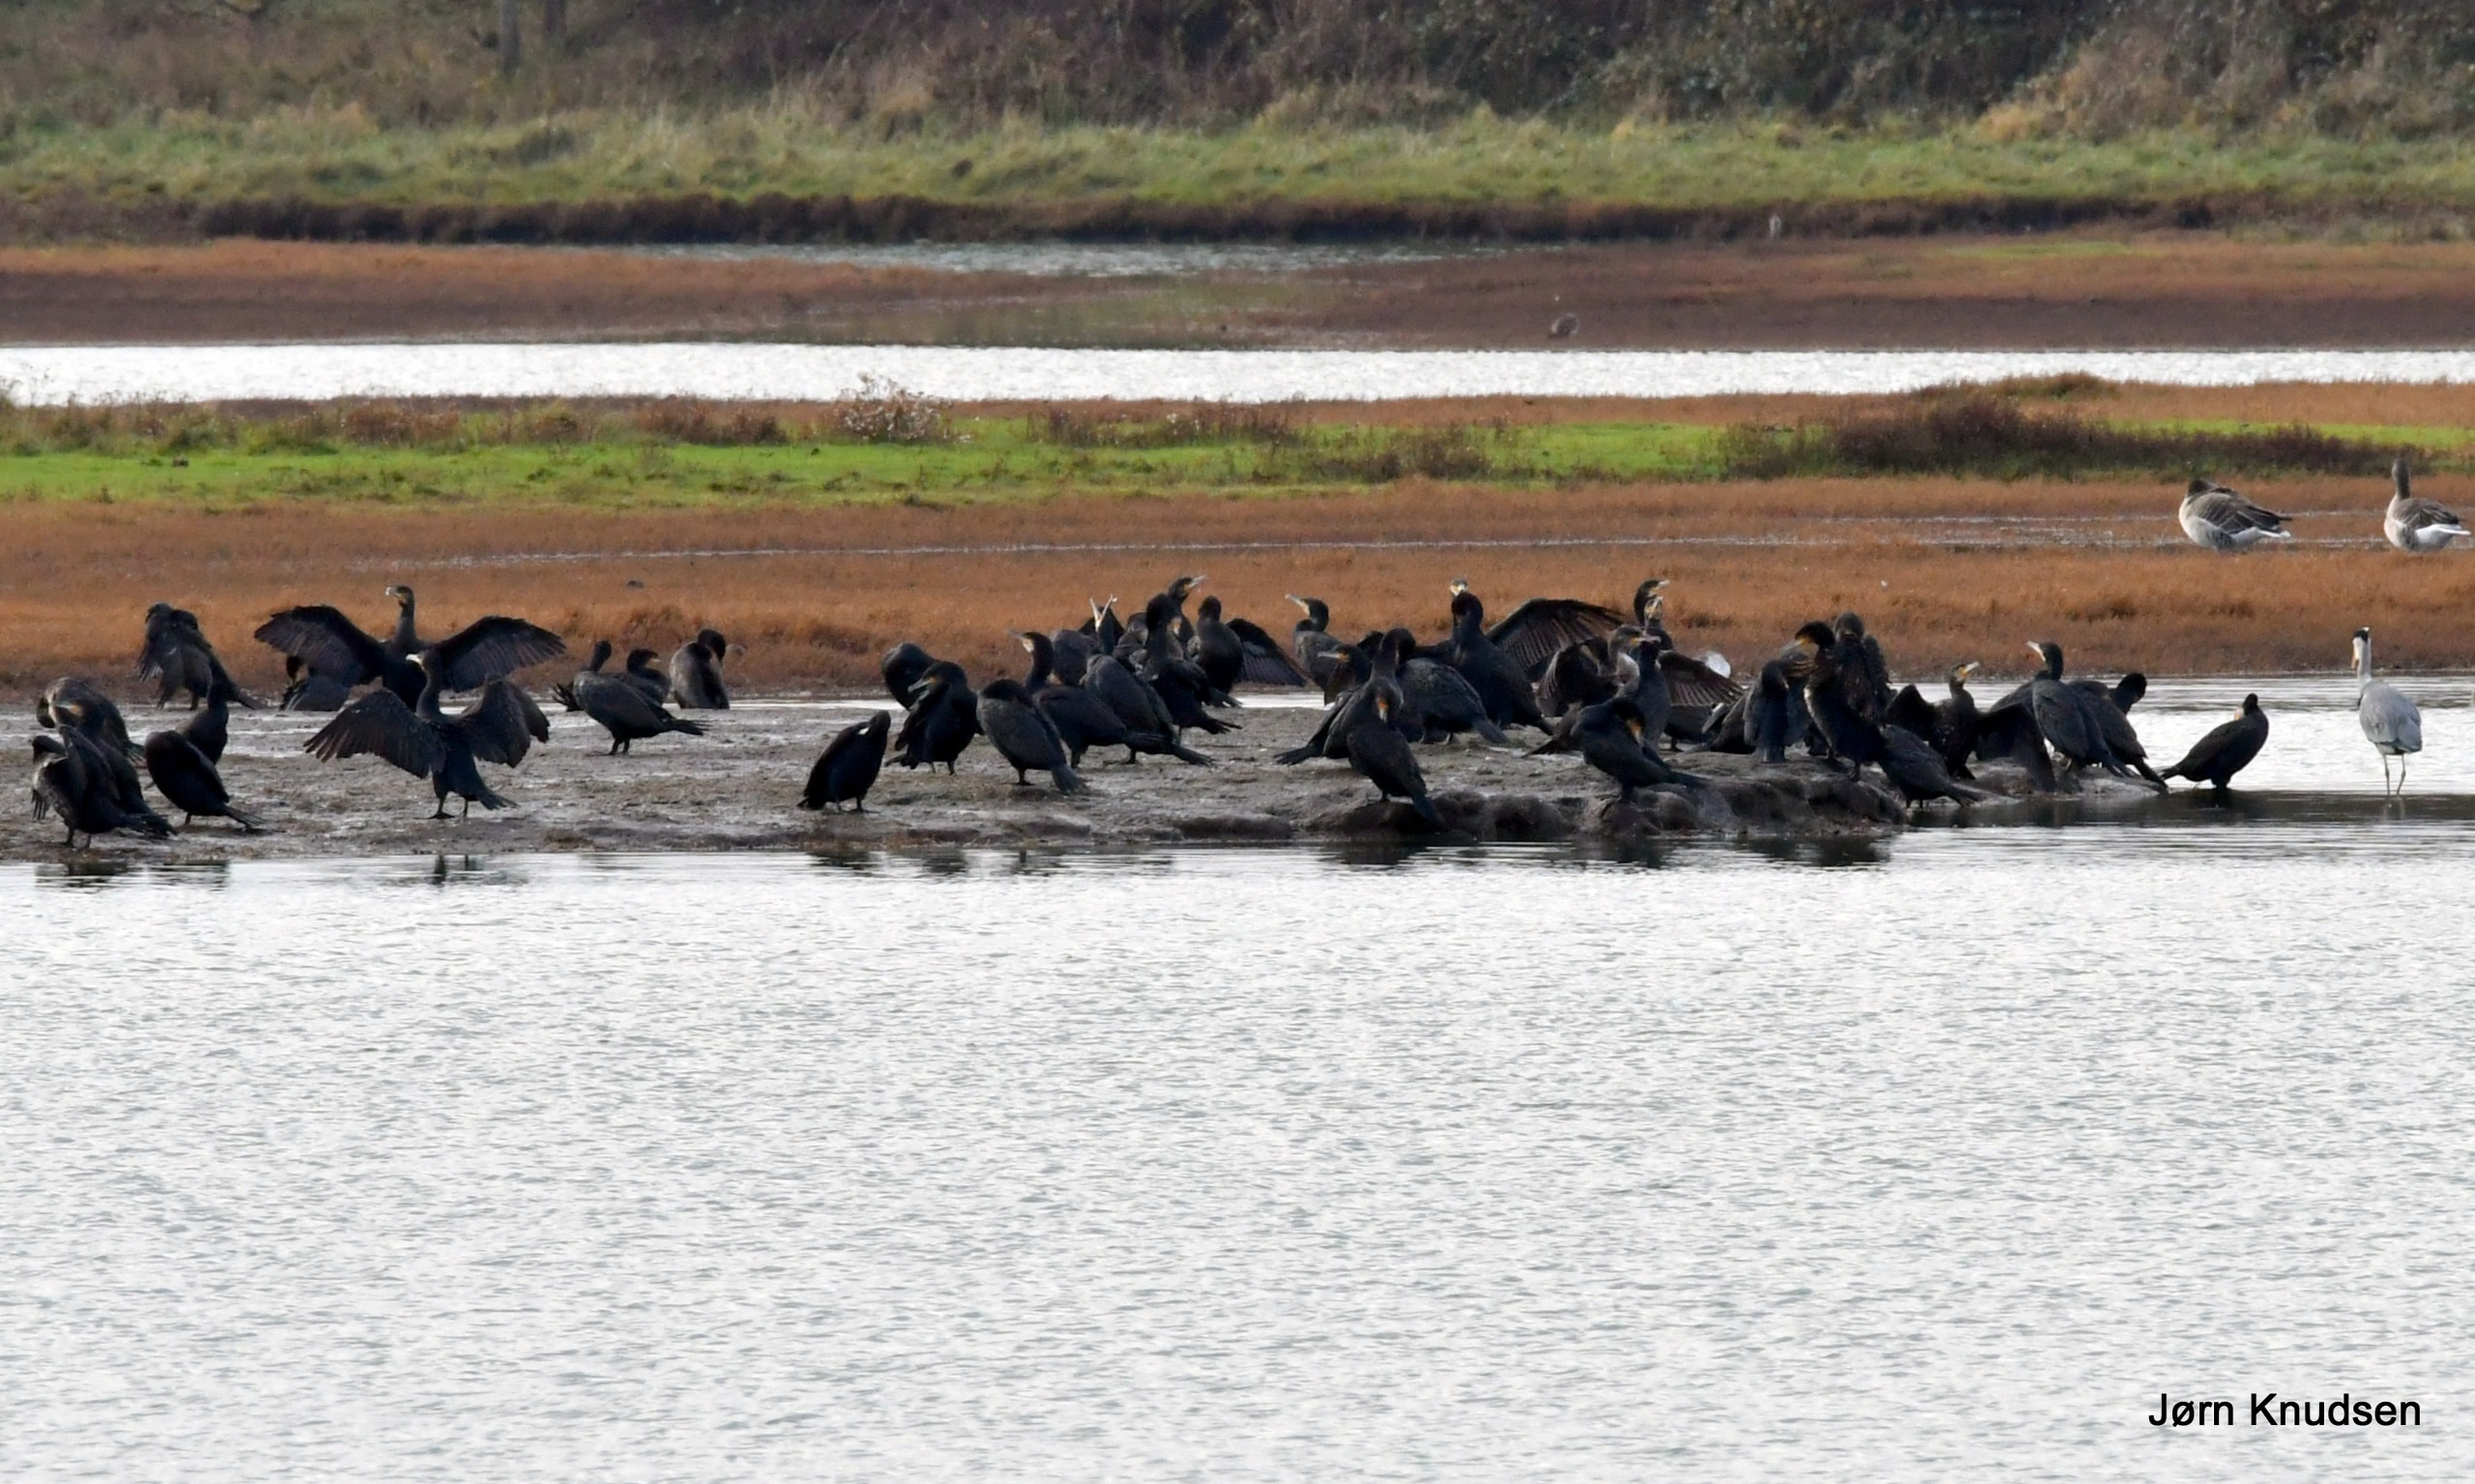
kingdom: Animalia
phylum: Chordata
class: Aves
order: Suliformes
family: Phalacrocoracidae
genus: Phalacrocorax
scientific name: Phalacrocorax carbo
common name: Skarv
